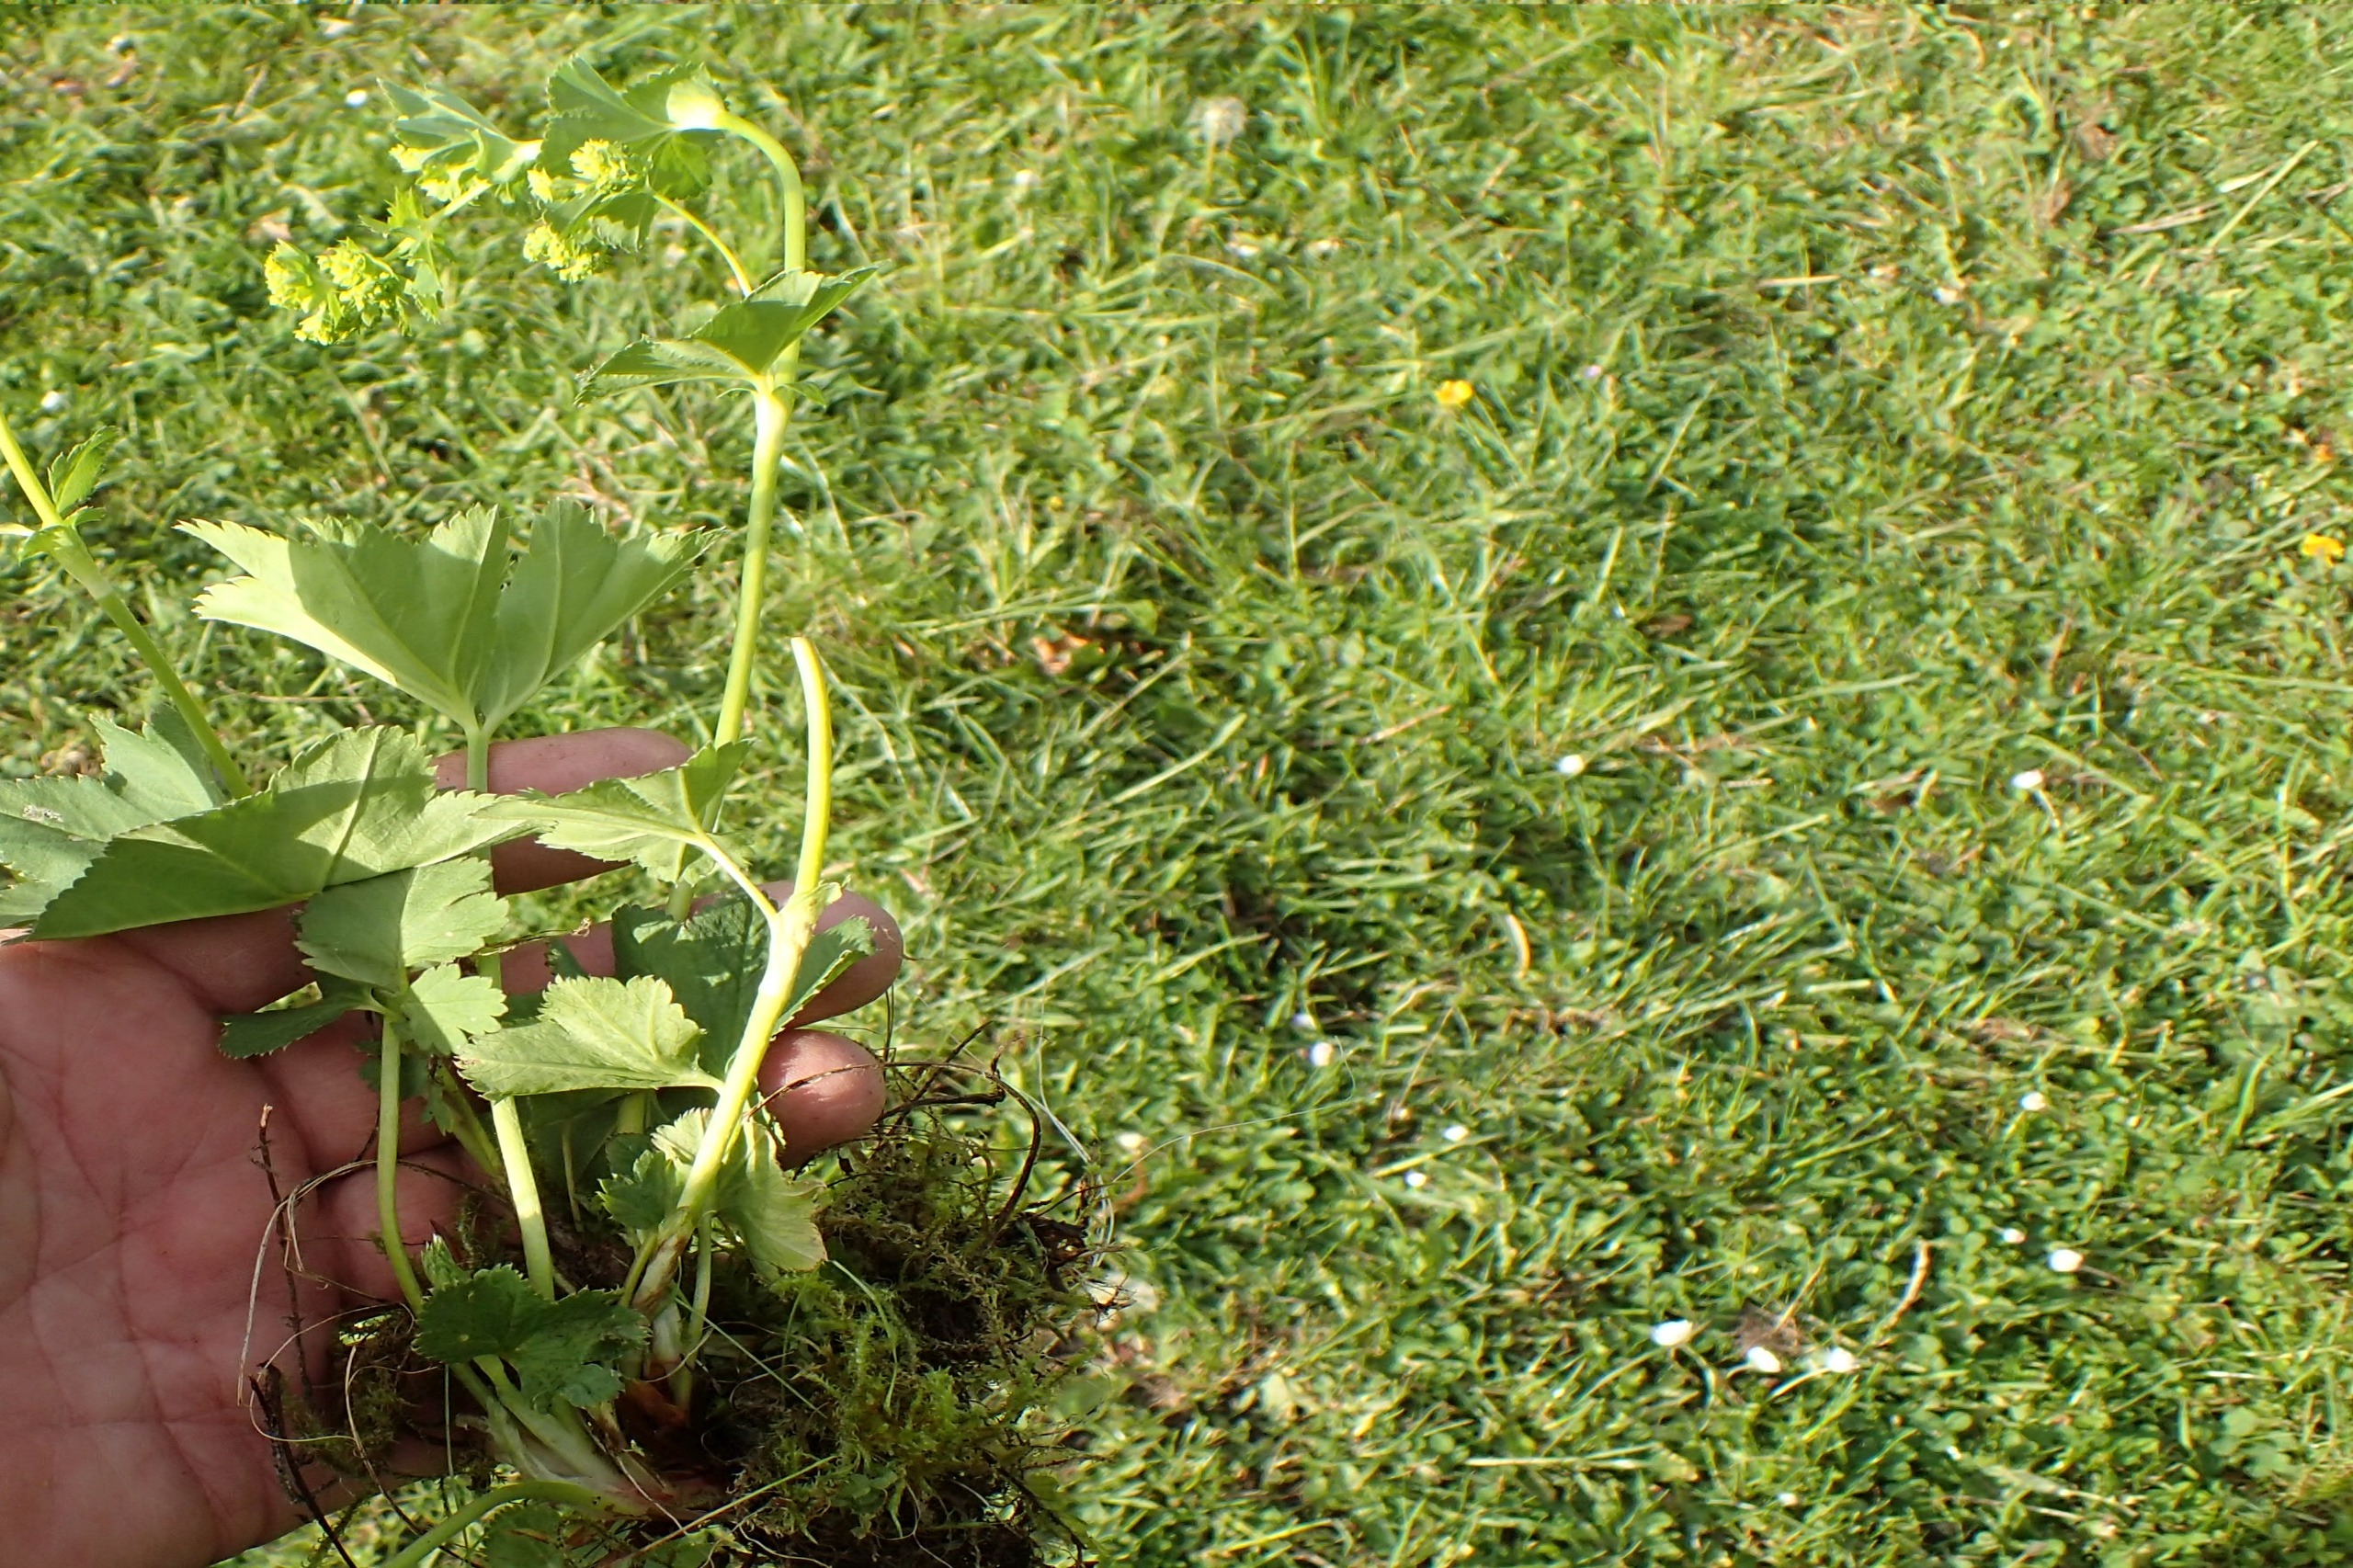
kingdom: Plantae
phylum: Tracheophyta
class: Magnoliopsida
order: Rosales
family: Rosaceae
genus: Alchemilla
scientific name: Alchemilla glabra
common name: Glat løvefod
